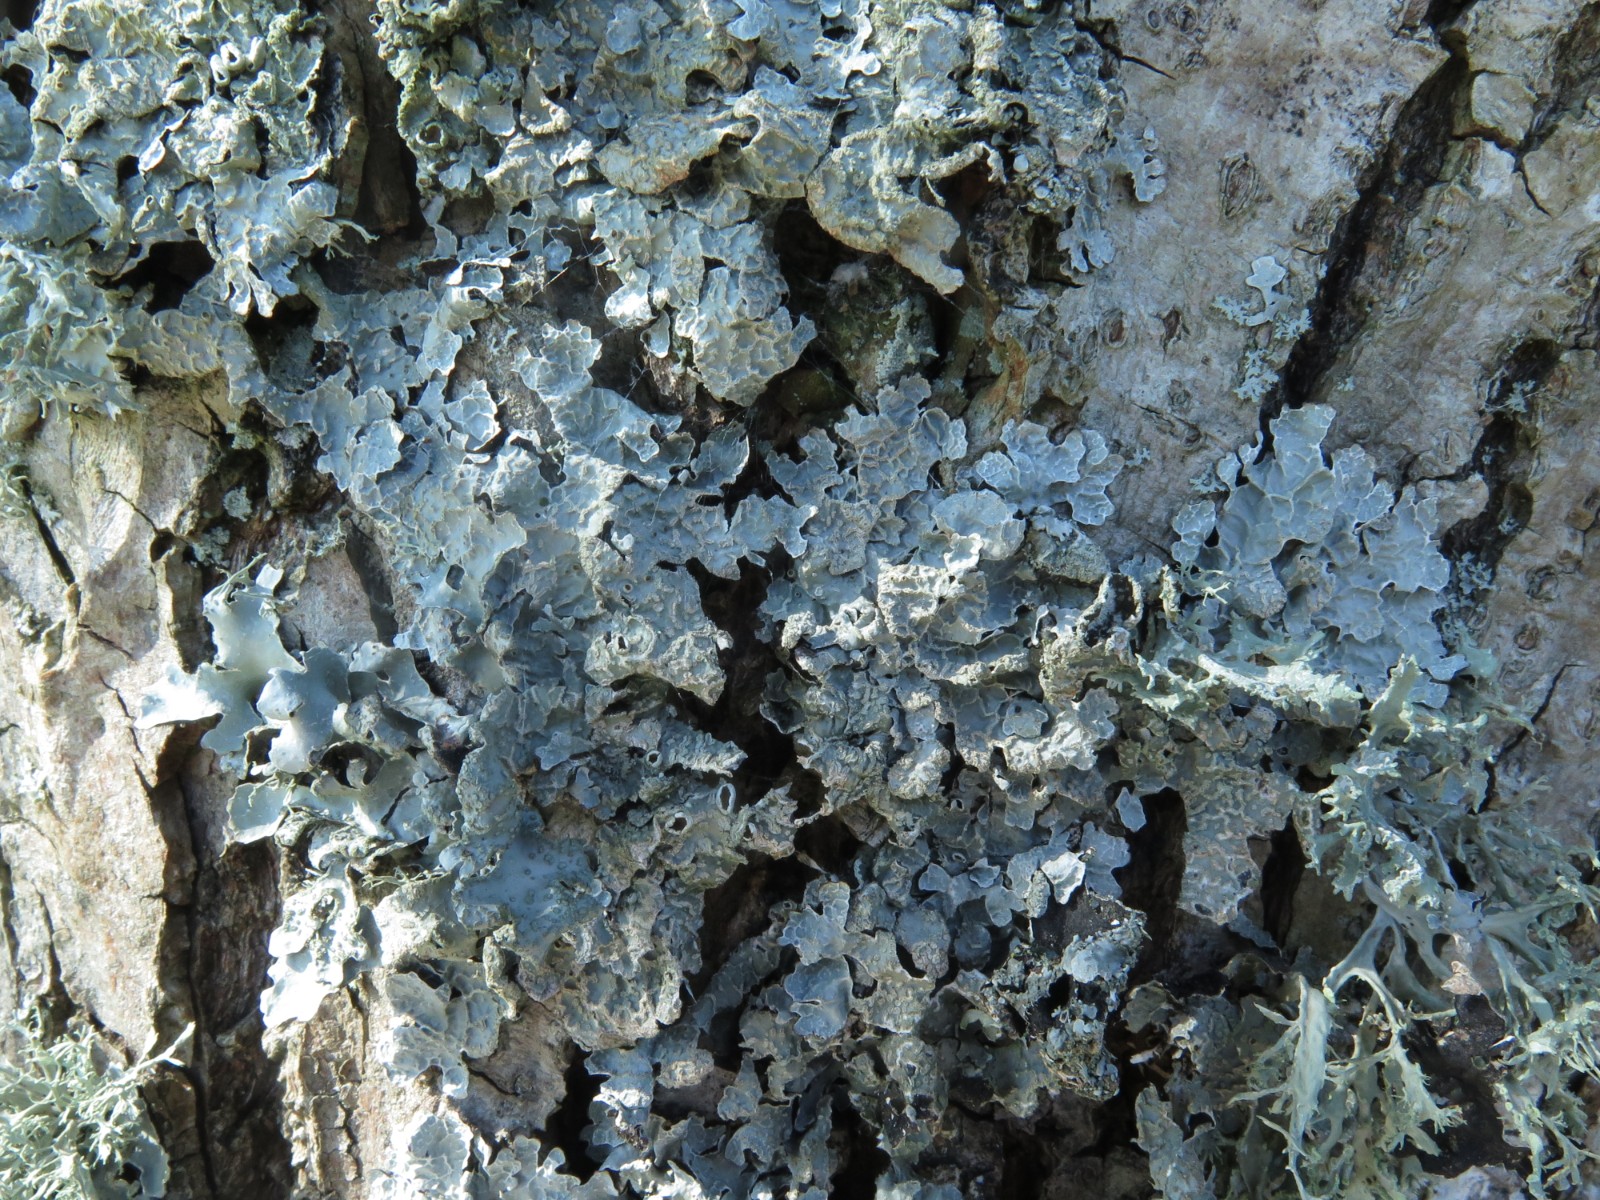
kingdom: Fungi
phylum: Ascomycota
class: Lecanoromycetes
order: Lecanorales
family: Parmeliaceae
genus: Parmelia
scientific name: Parmelia sulcata
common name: rynket skållav
